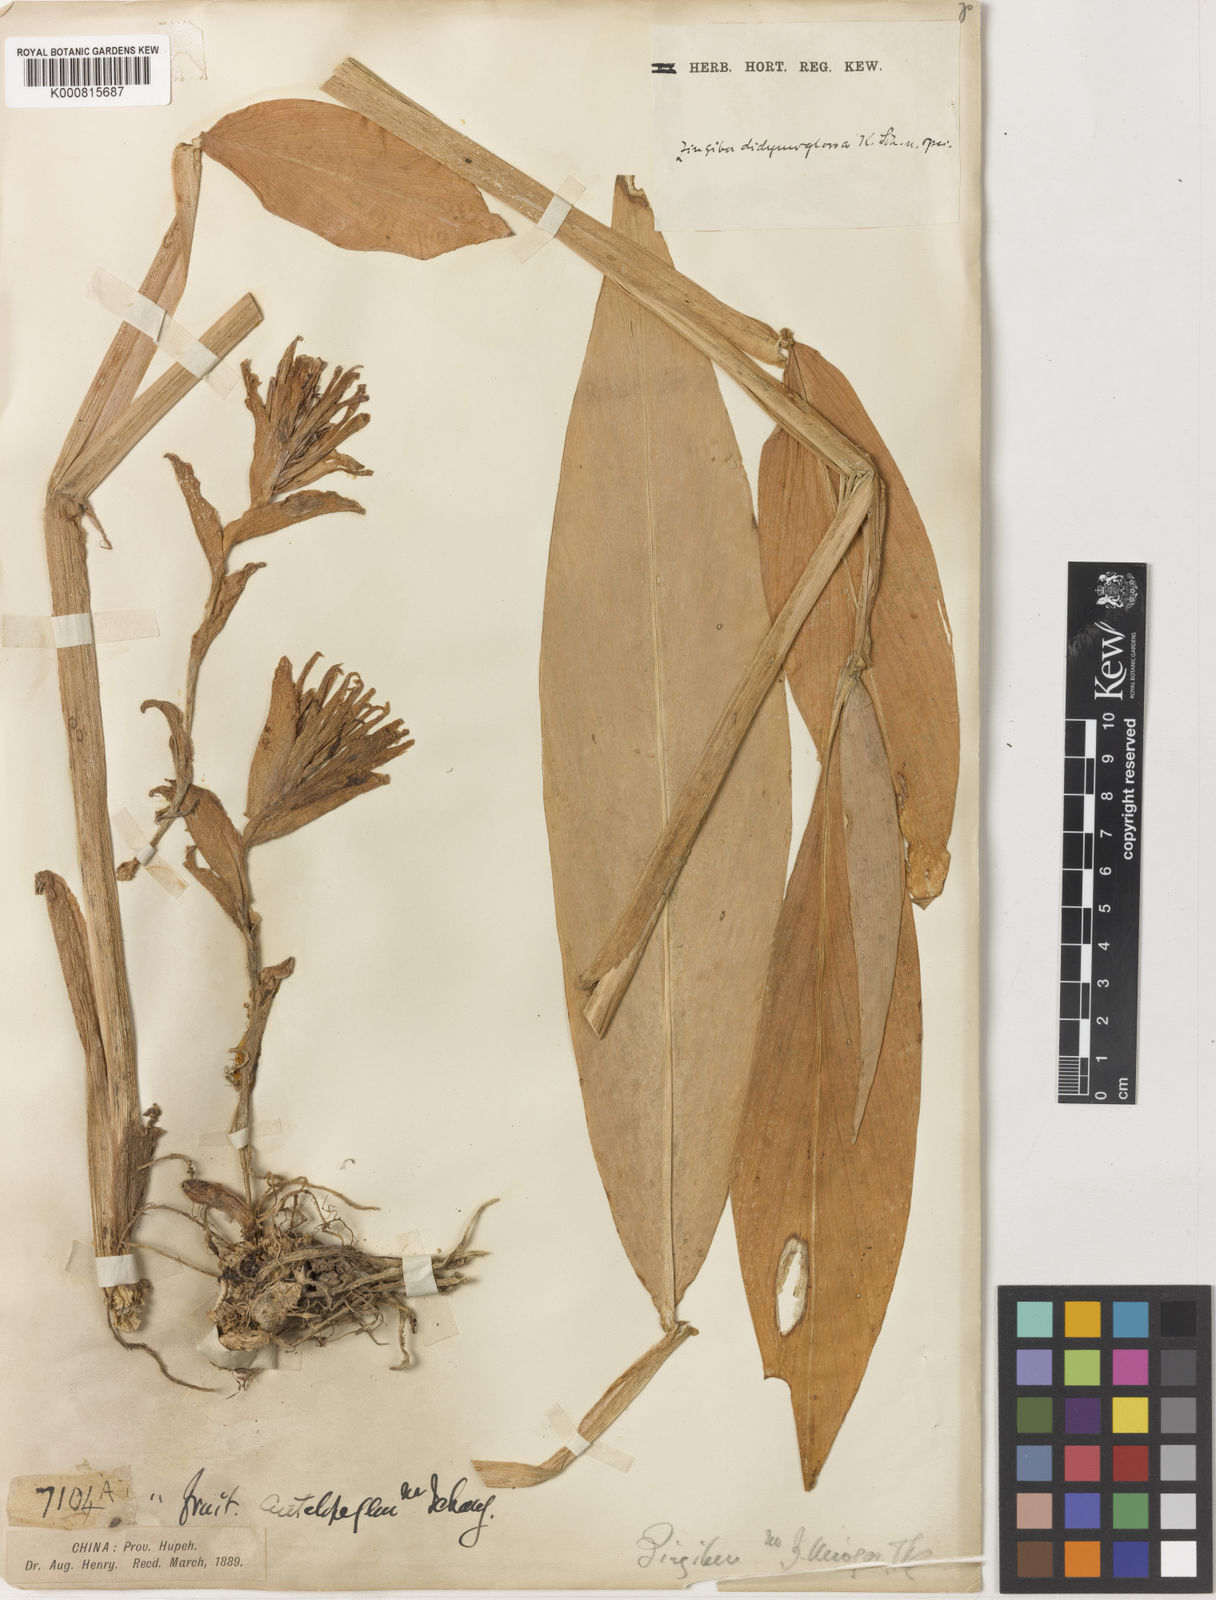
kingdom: Plantae
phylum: Tracheophyta
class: Liliopsida
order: Zingiberales
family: Zingiberaceae
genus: Zingiber
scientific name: Zingiber striolatum
